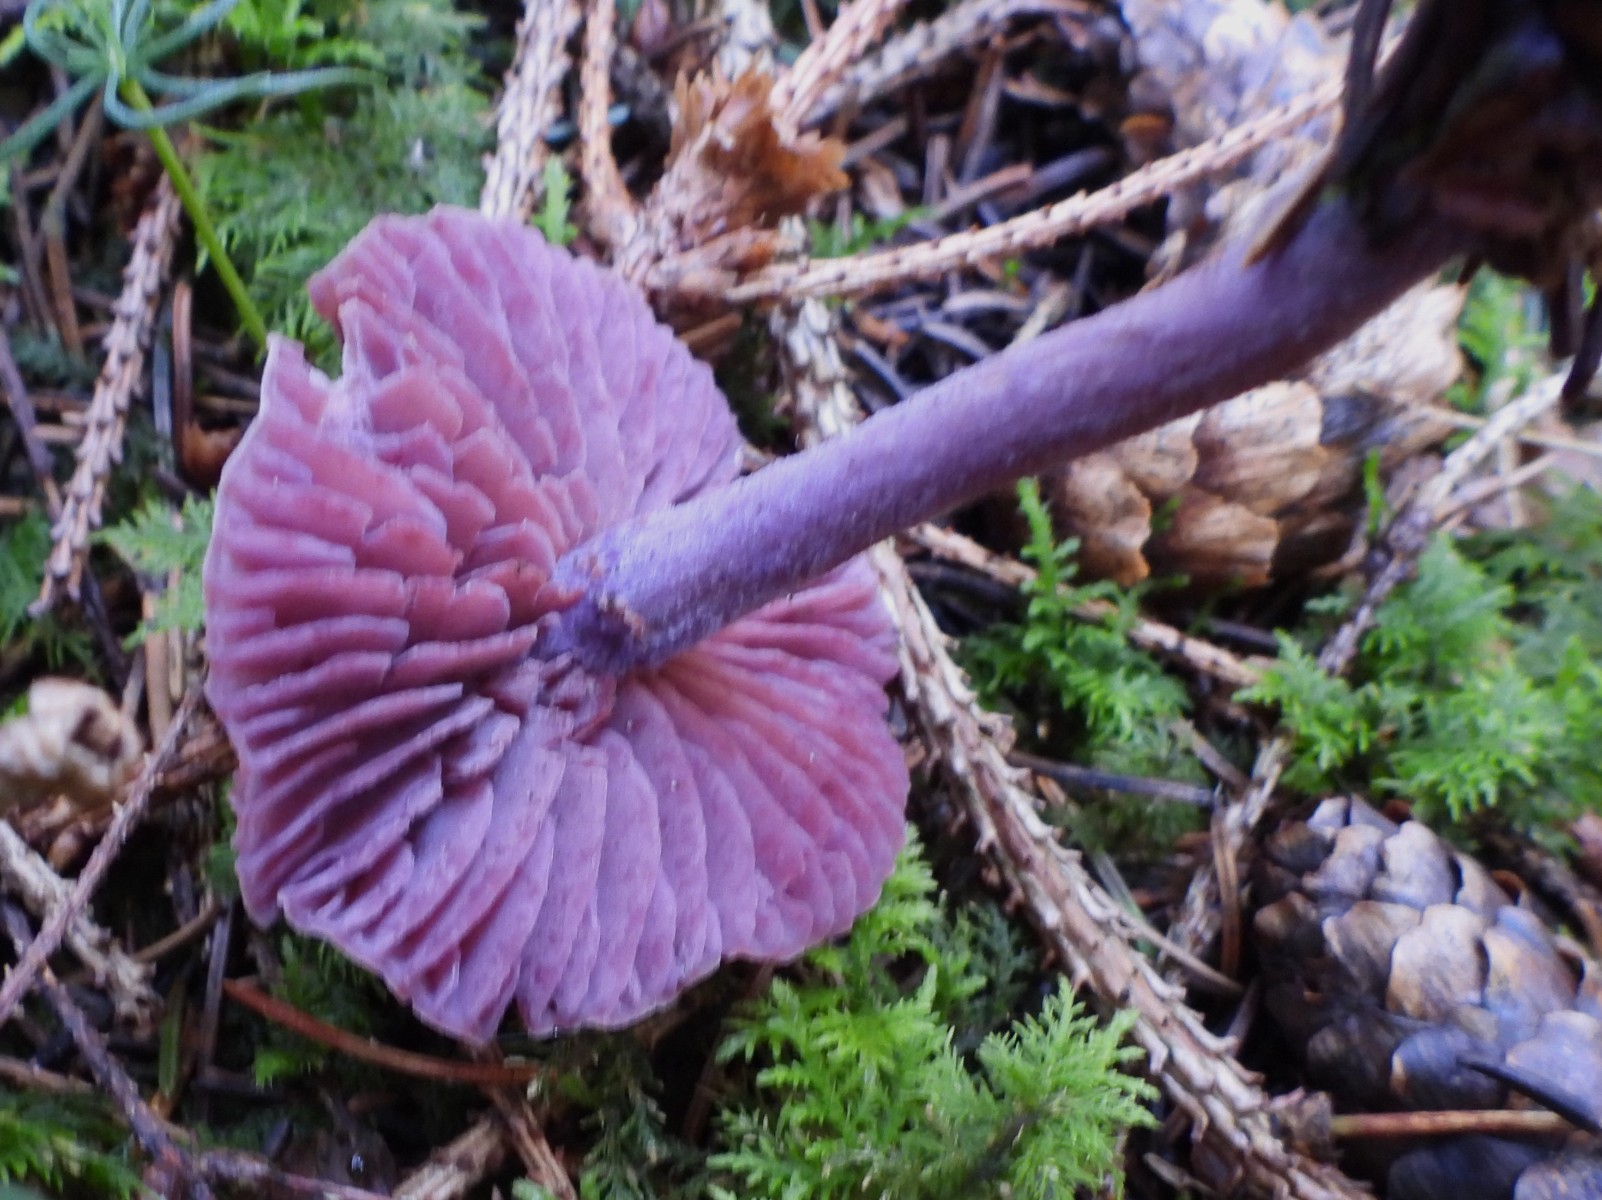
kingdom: Fungi
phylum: Basidiomycota
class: Agaricomycetes
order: Agaricales
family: Hydnangiaceae
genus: Laccaria
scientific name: Laccaria amethystina
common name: violet ametysthat
